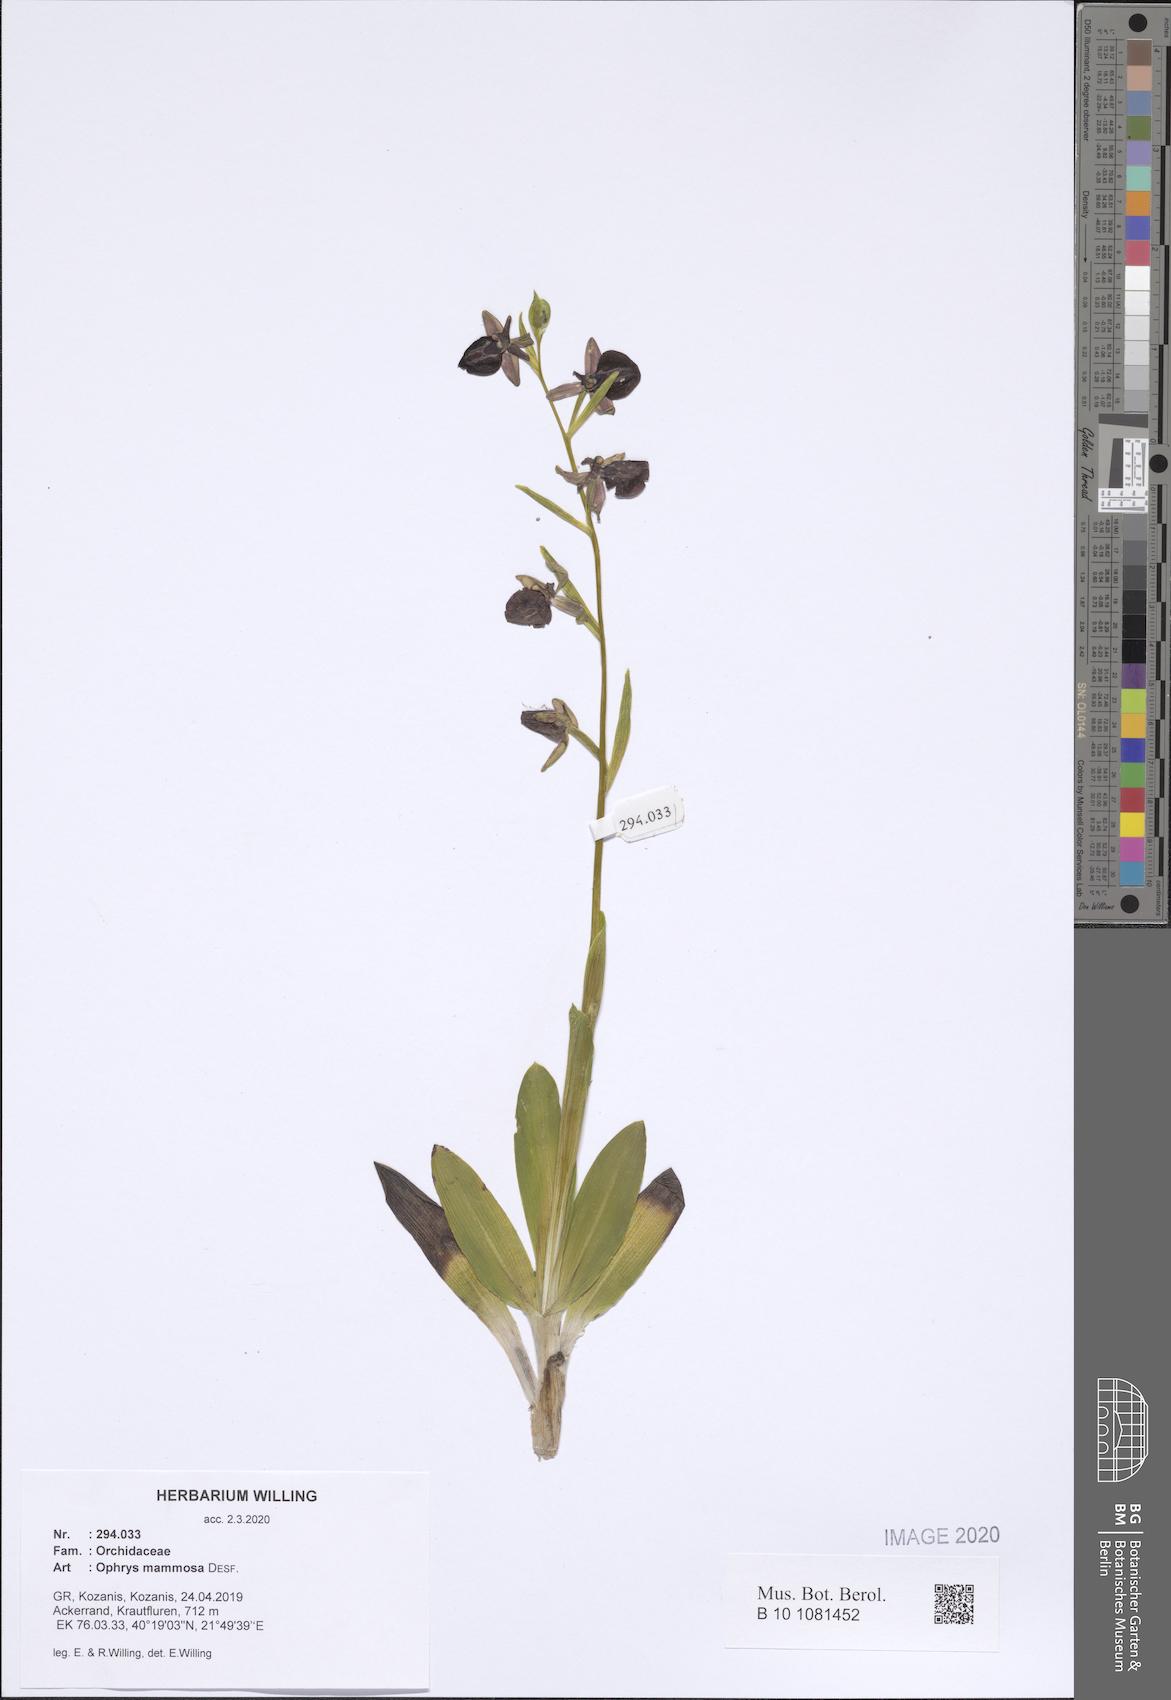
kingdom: Plantae
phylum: Tracheophyta
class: Liliopsida
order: Asparagales
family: Orchidaceae
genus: Ophrys
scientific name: Ophrys sphegodes
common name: Early spider-orchid
